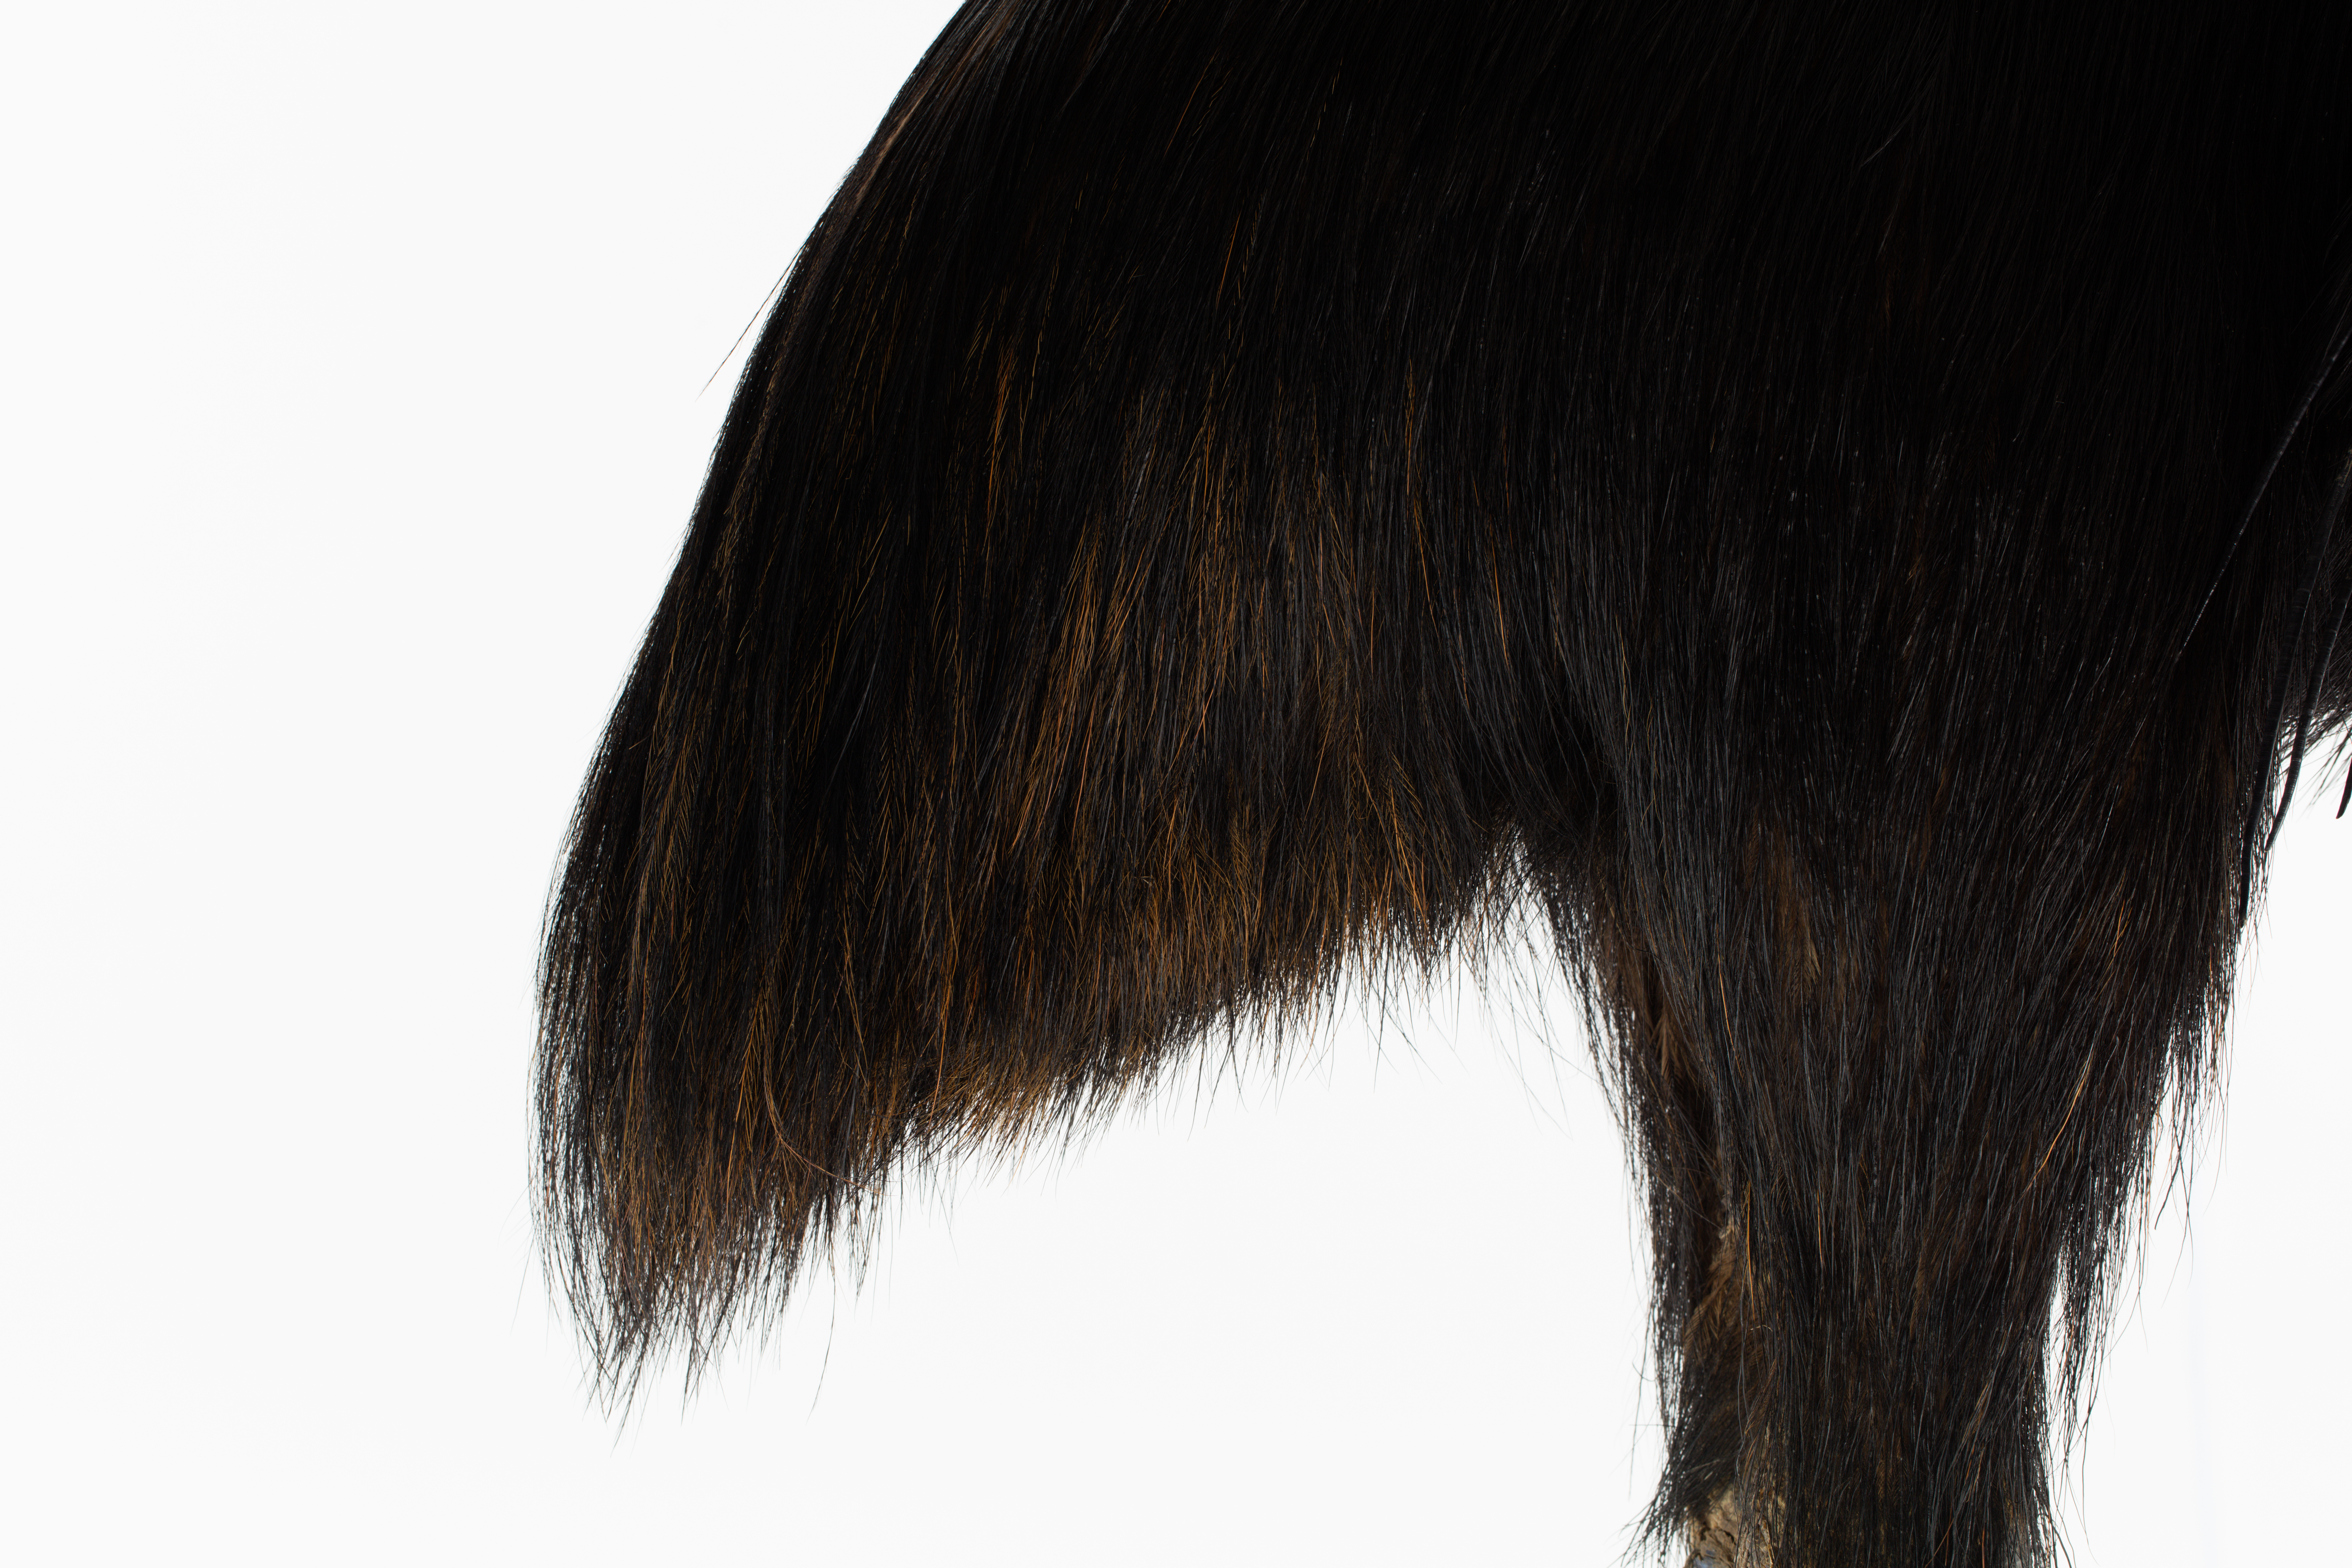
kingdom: Animalia
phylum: Chordata
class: Aves
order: Casuariiformes
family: Casuariidae
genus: Casuarius
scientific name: Casuarius casuarius
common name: Southern cassowary
